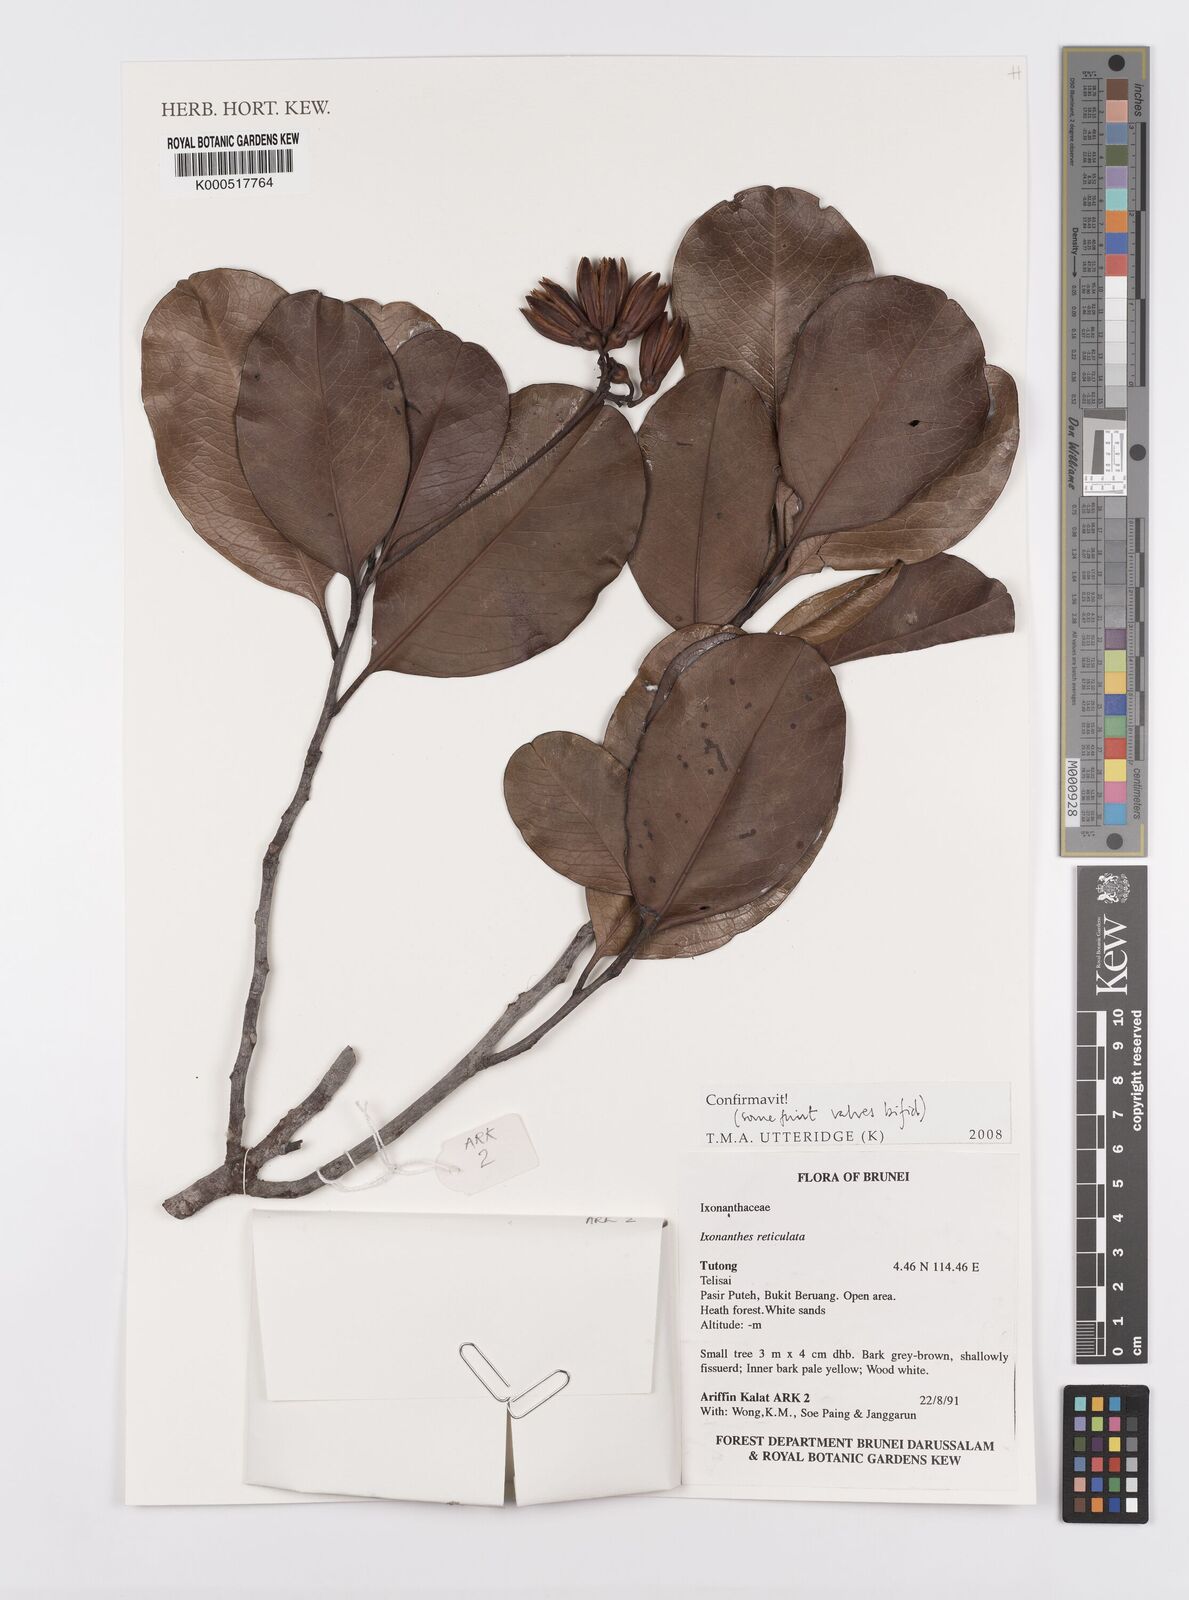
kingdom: Plantae
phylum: Tracheophyta
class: Magnoliopsida
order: Malpighiales
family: Ixonanthaceae
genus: Ixonanthes
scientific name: Ixonanthes reticulata
